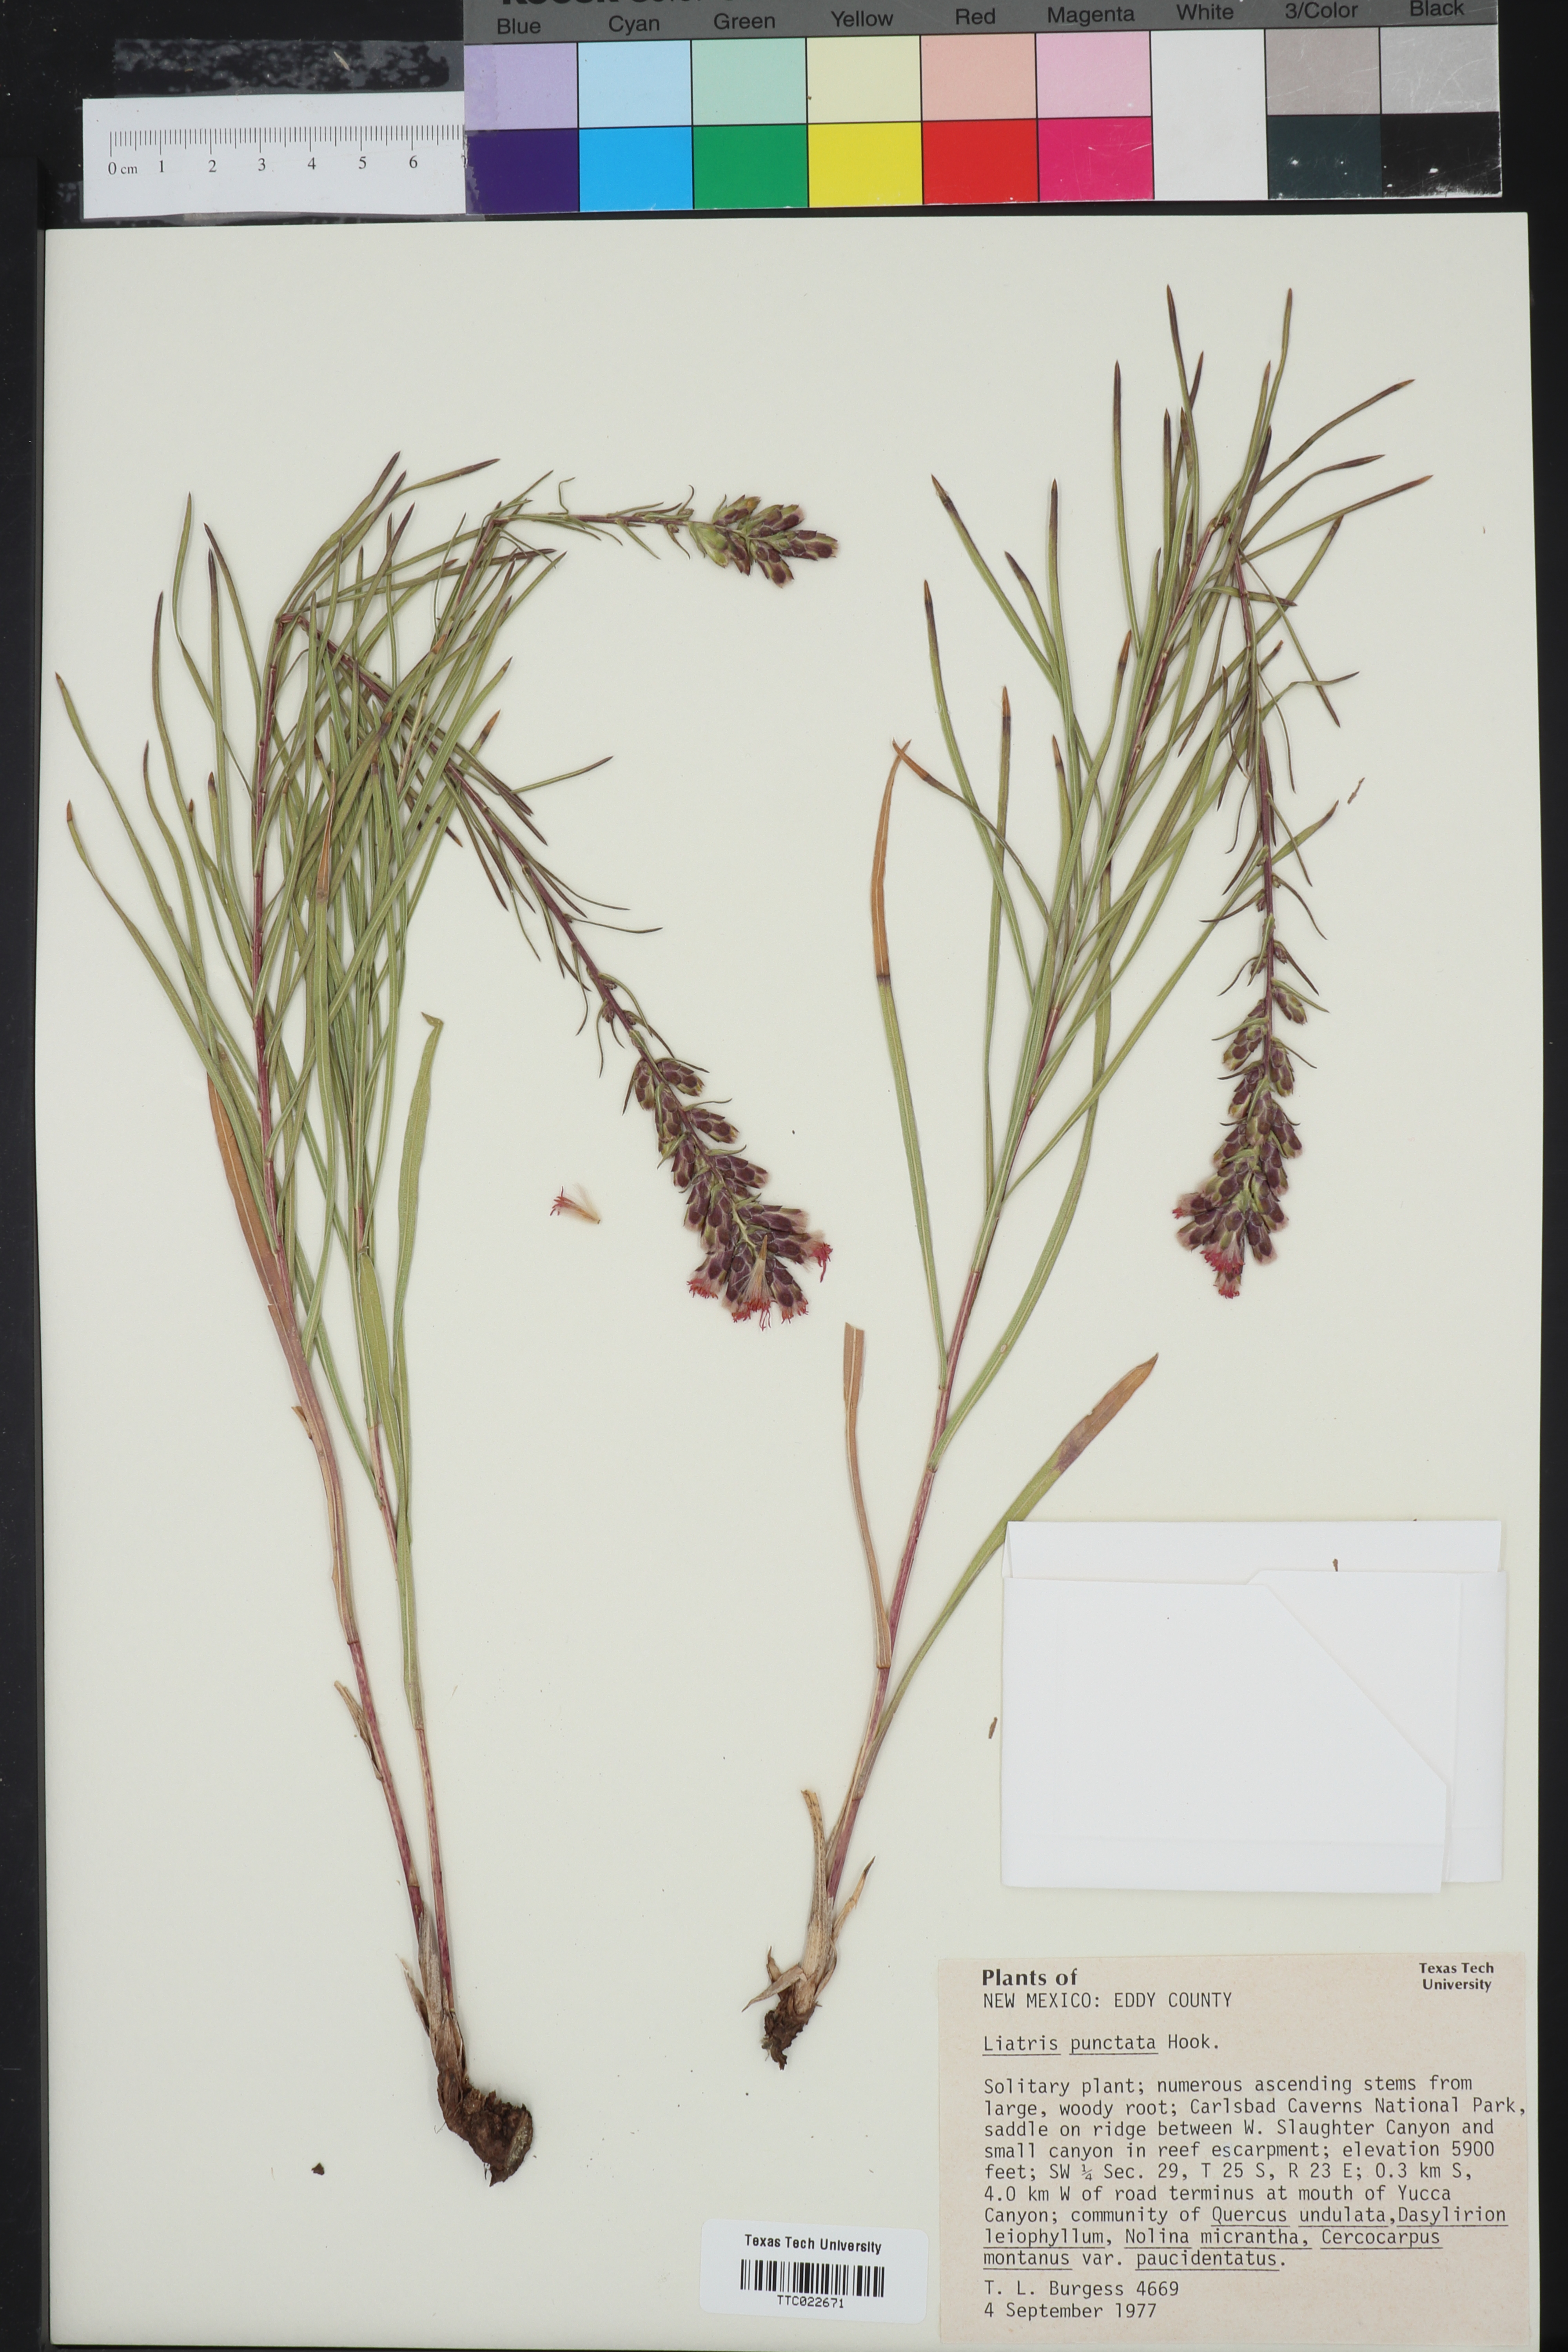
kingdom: Plantae
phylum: Tracheophyta
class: Magnoliopsida
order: Asterales
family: Asteraceae
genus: Liatris
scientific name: Liatris punctata
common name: Dotted gayfeather
